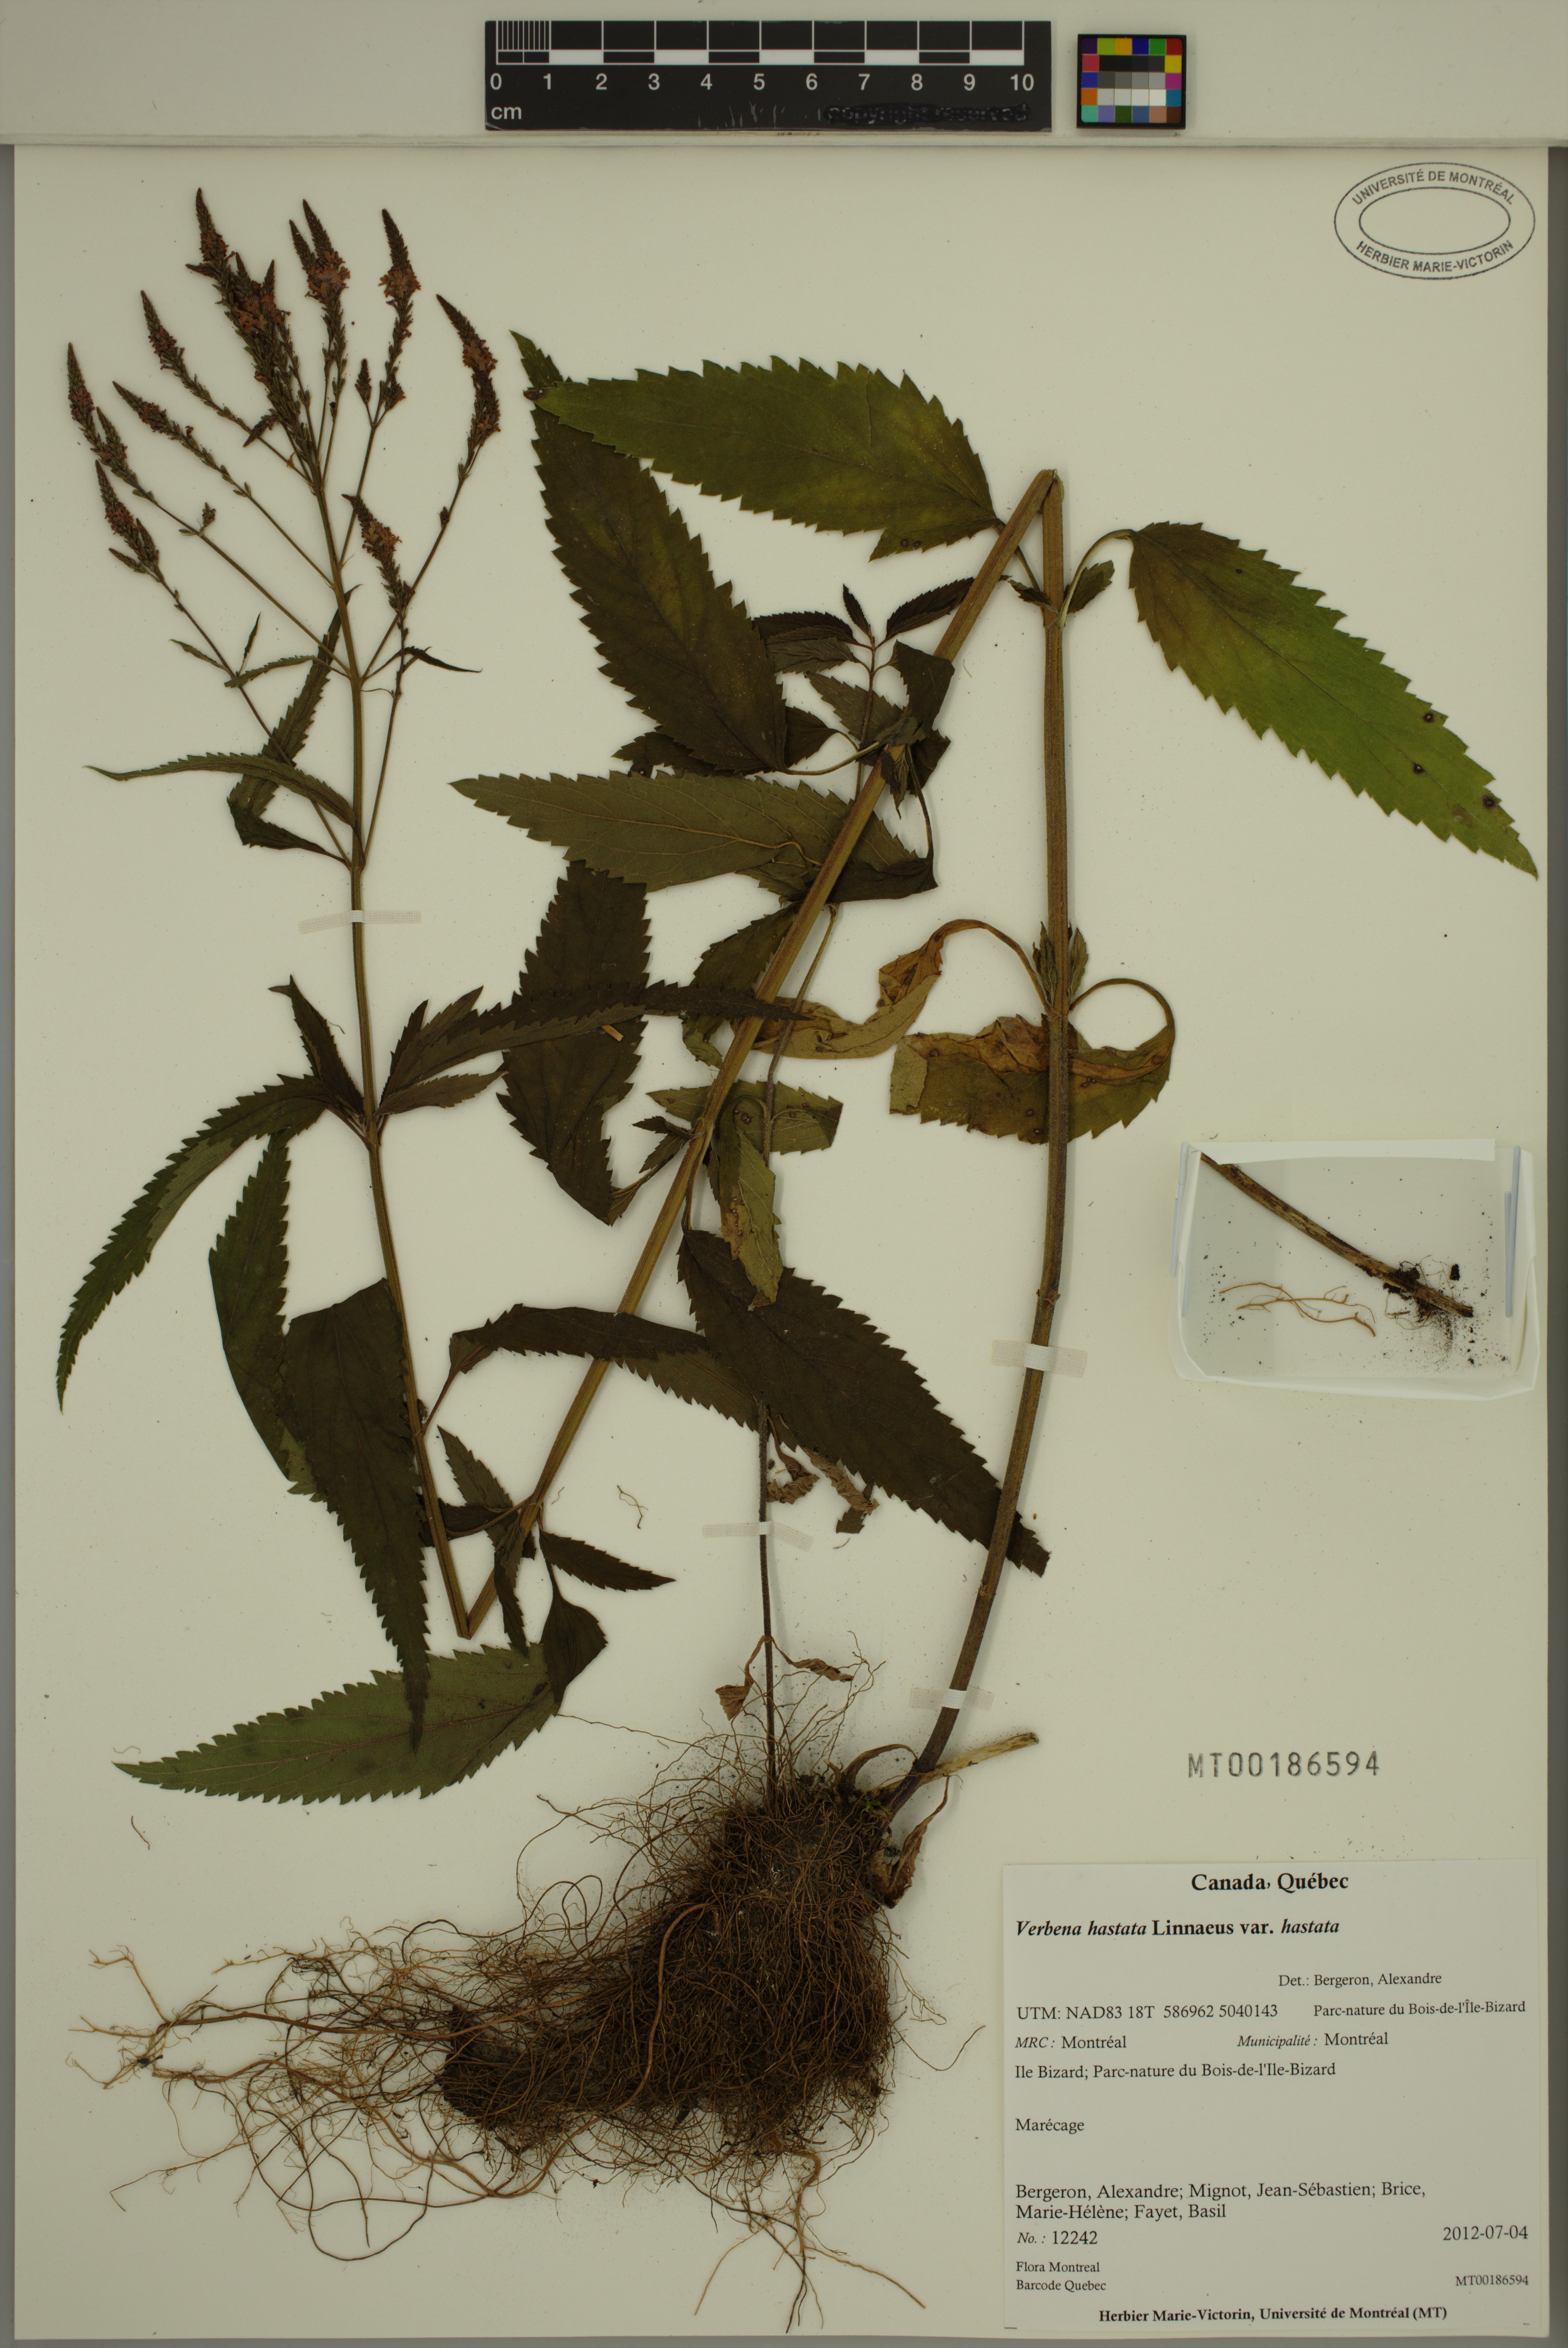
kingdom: Plantae
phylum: Tracheophyta
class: Magnoliopsida
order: Lamiales
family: Verbenaceae
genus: Verbena
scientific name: Verbena hastata
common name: American blue vervain
